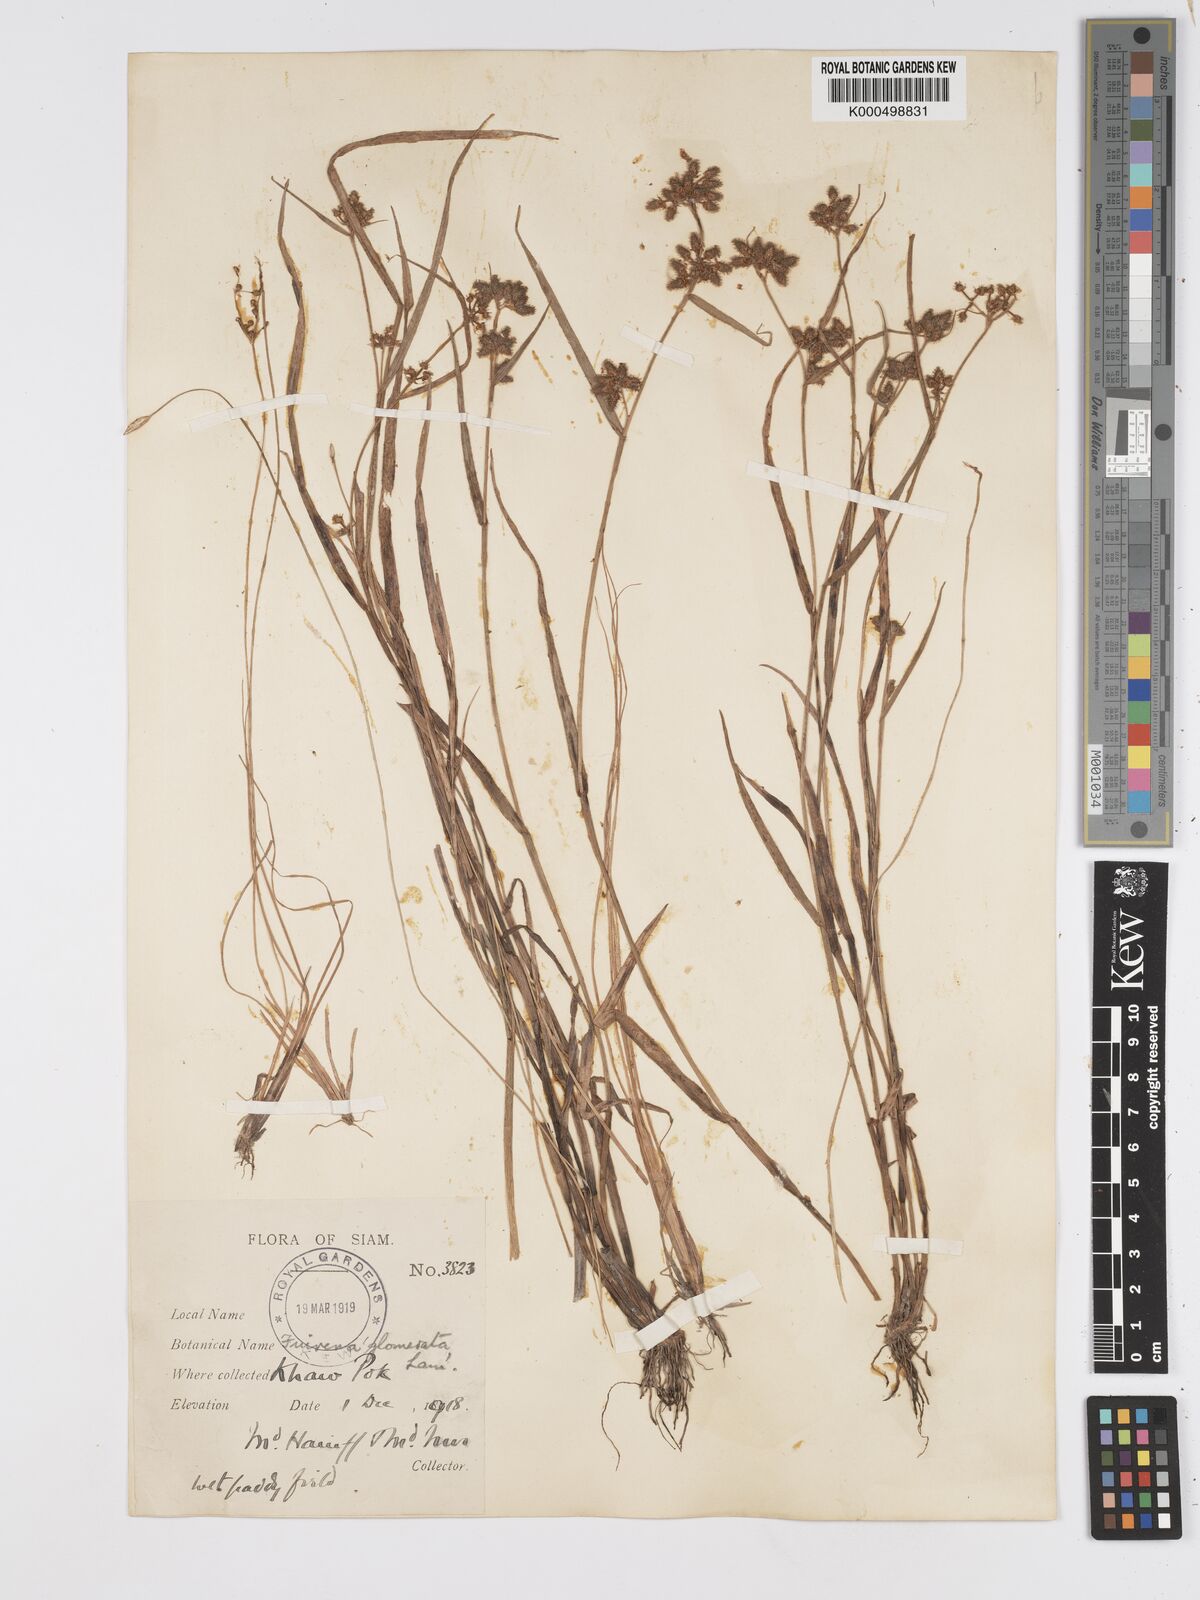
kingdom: Plantae
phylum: Tracheophyta
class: Liliopsida
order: Poales
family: Cyperaceae
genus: Fuirena
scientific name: Fuirena ciliaris
